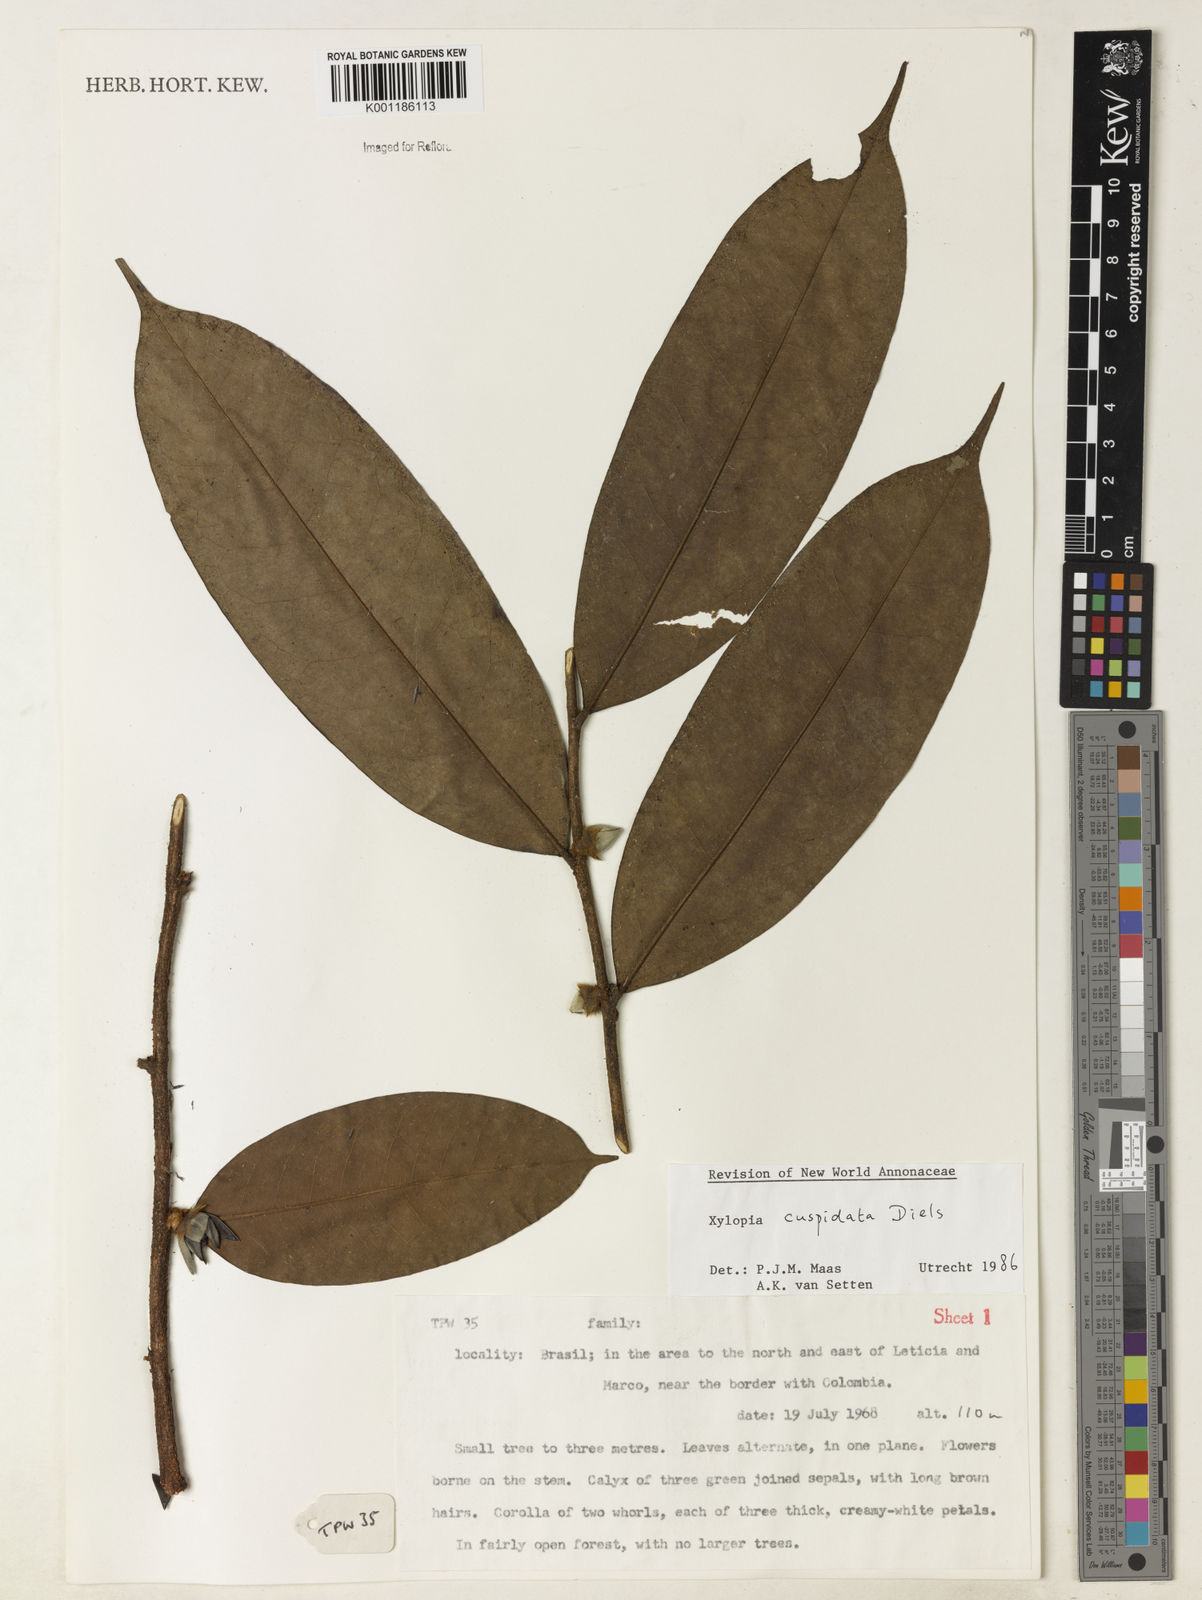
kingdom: Plantae
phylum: Tracheophyta
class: Magnoliopsida
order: Magnoliales
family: Annonaceae
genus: Xylopia
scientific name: Xylopia cuspidata
